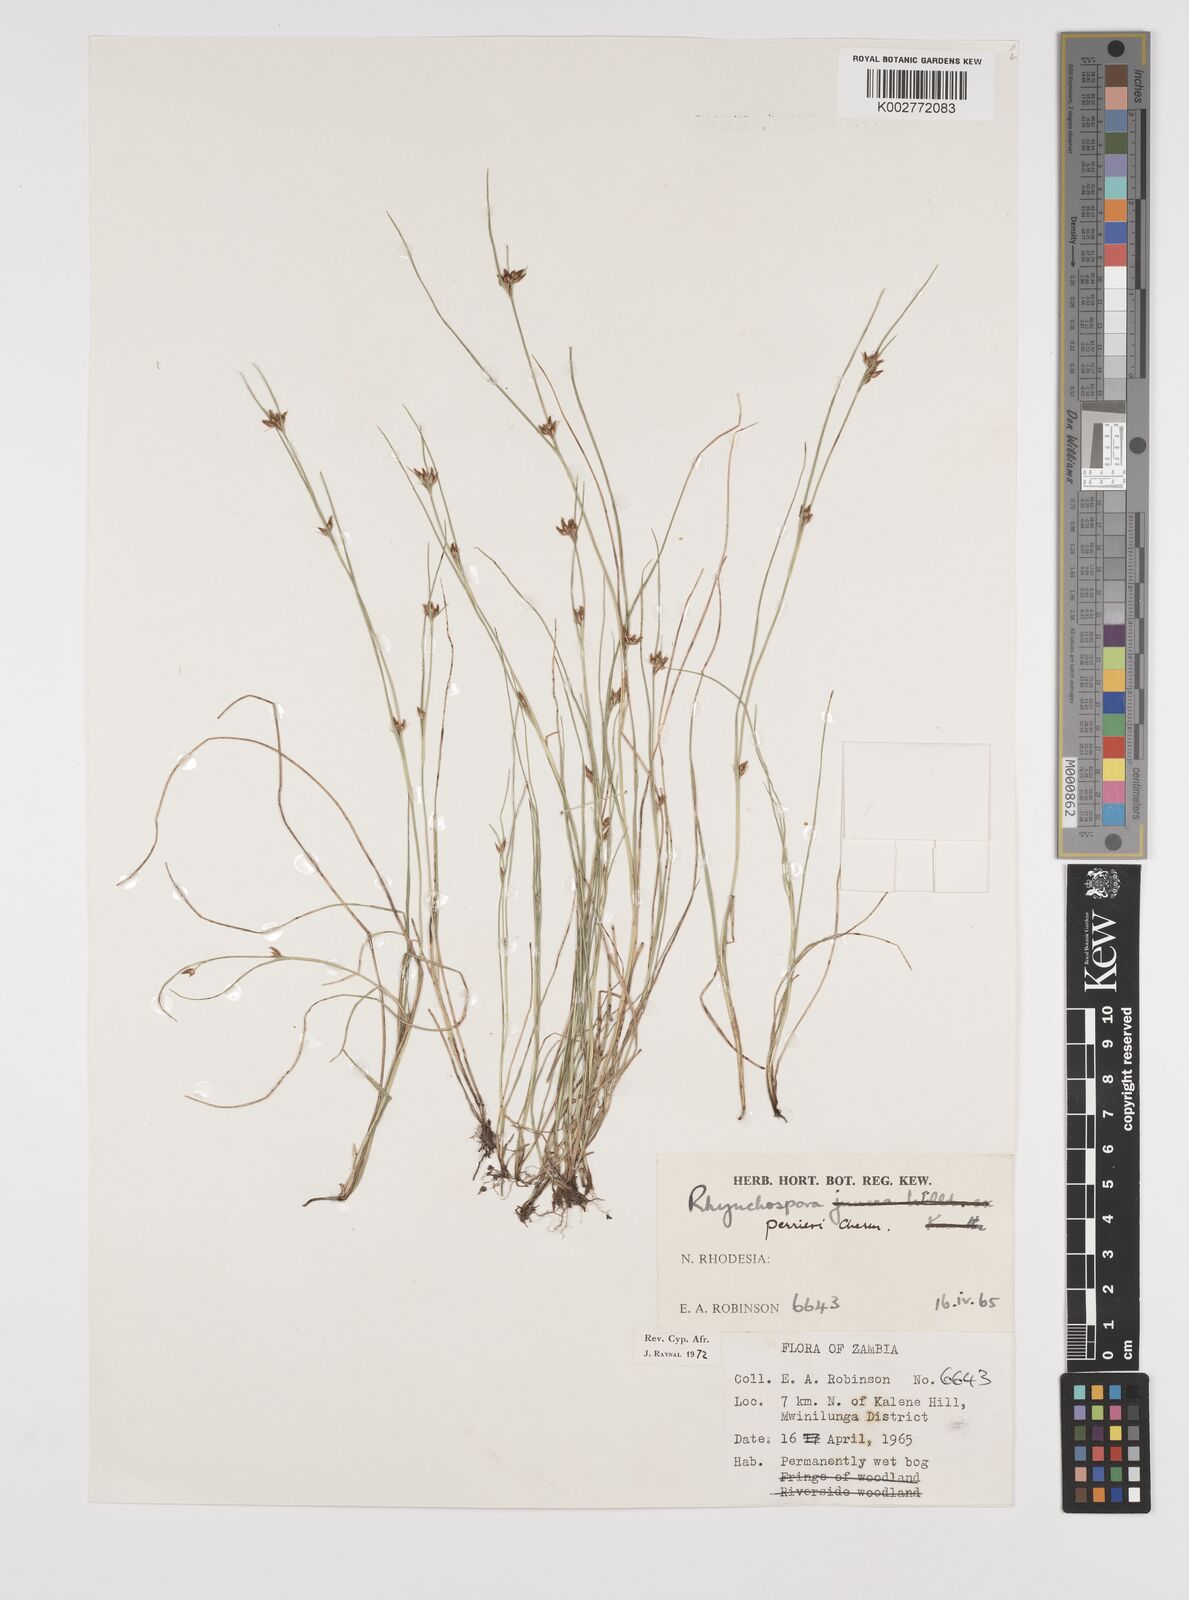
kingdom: Plantae
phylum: Tracheophyta
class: Liliopsida
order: Poales
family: Cyperaceae
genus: Rhynchospora
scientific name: Rhynchospora perrieri
